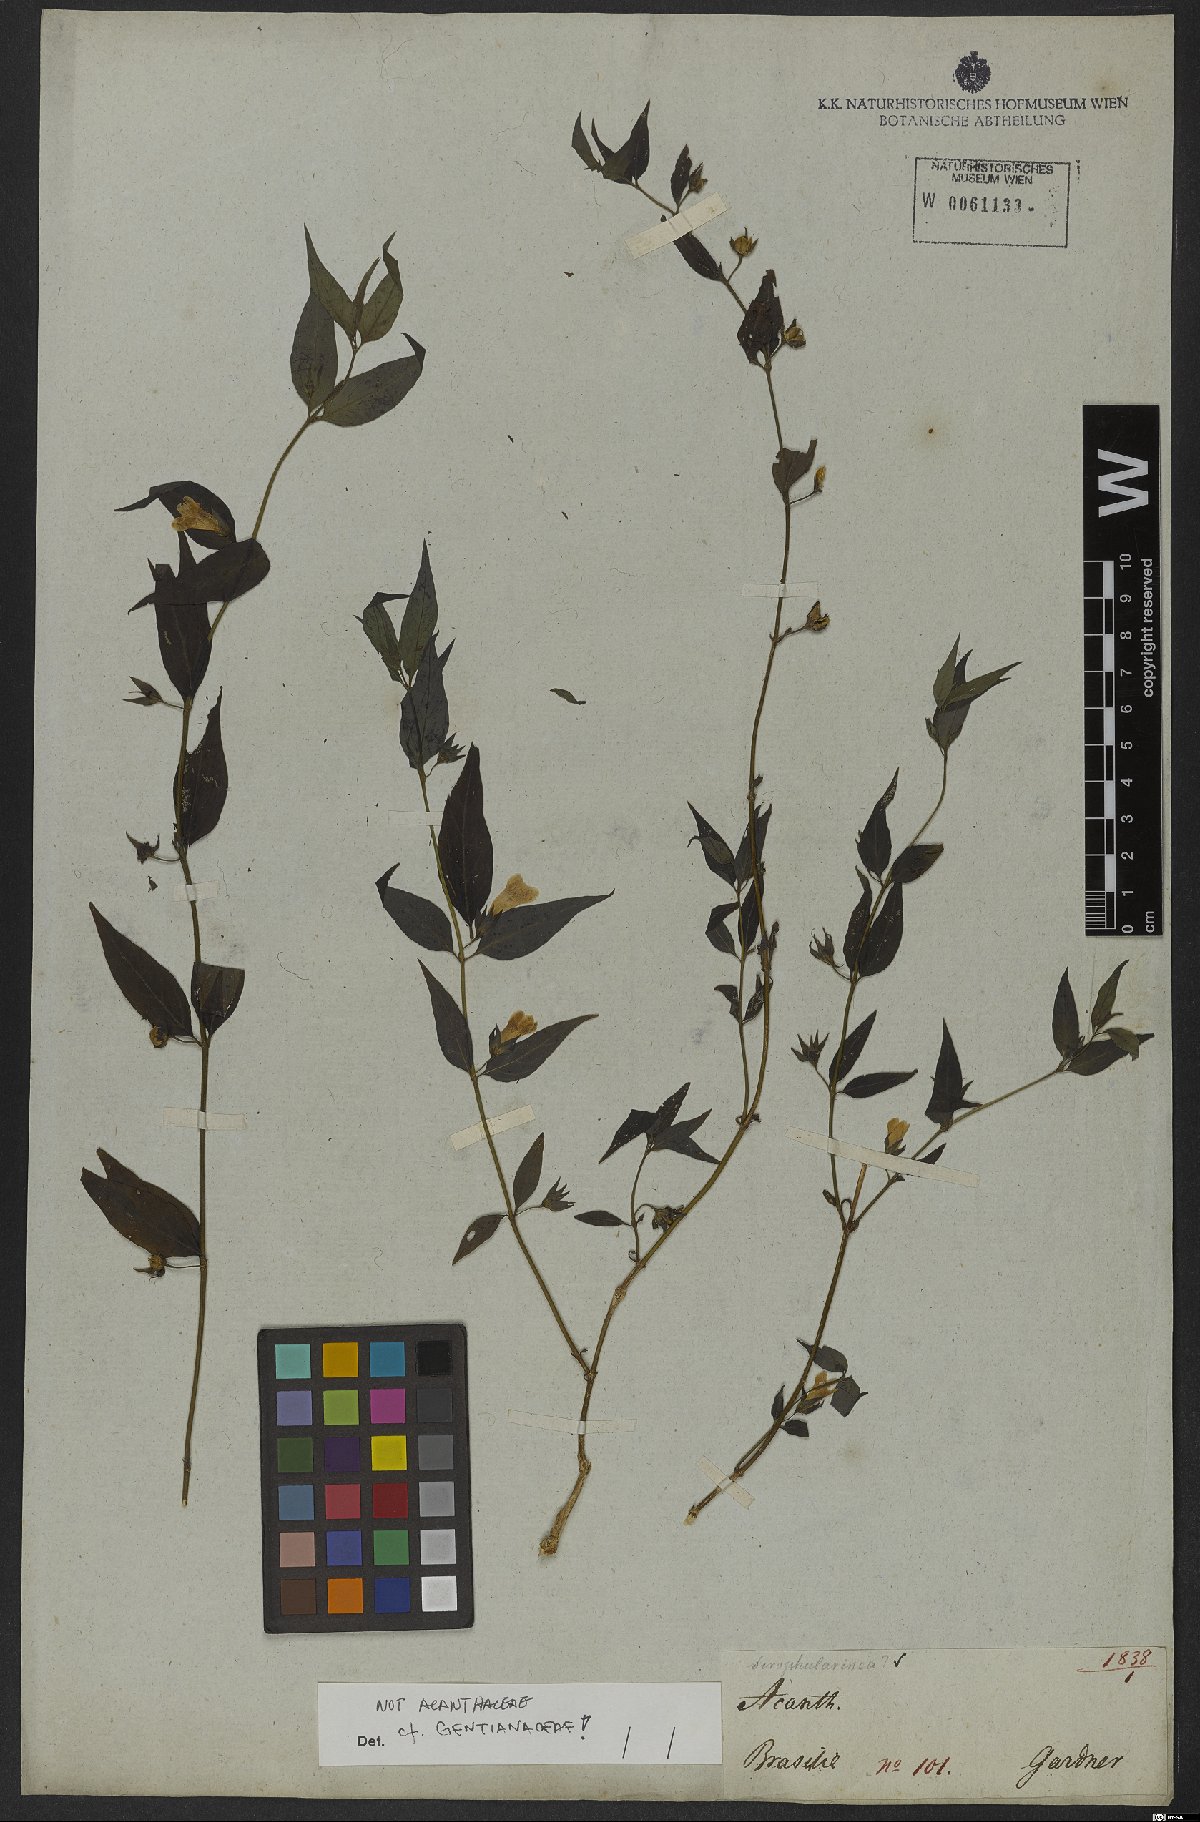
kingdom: Plantae
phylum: Tracheophyta
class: Magnoliopsida
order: Lamiales
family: Plantaginaceae
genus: Ildefonsia
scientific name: Ildefonsia bibracteata
